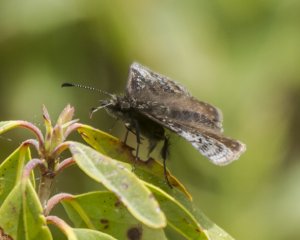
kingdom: Animalia
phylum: Arthropoda
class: Insecta
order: Lepidoptera
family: Hesperiidae
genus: Erynnis
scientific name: Erynnis icelus
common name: Dreamy Duskywing
